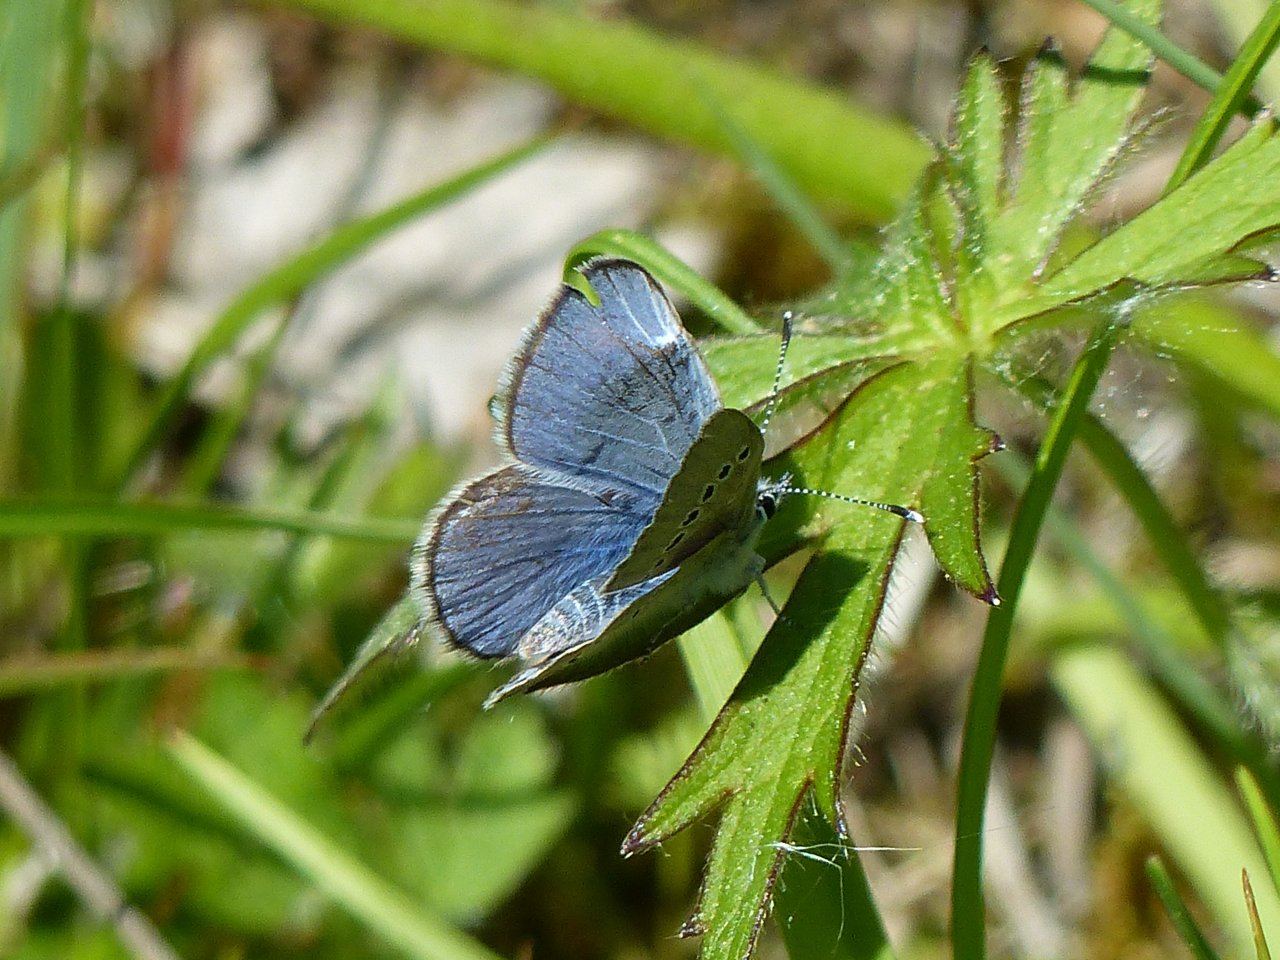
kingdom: Animalia
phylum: Arthropoda
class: Insecta
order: Lepidoptera
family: Lycaenidae
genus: Glaucopsyche
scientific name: Glaucopsyche lygdamus
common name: Silvery Blue
